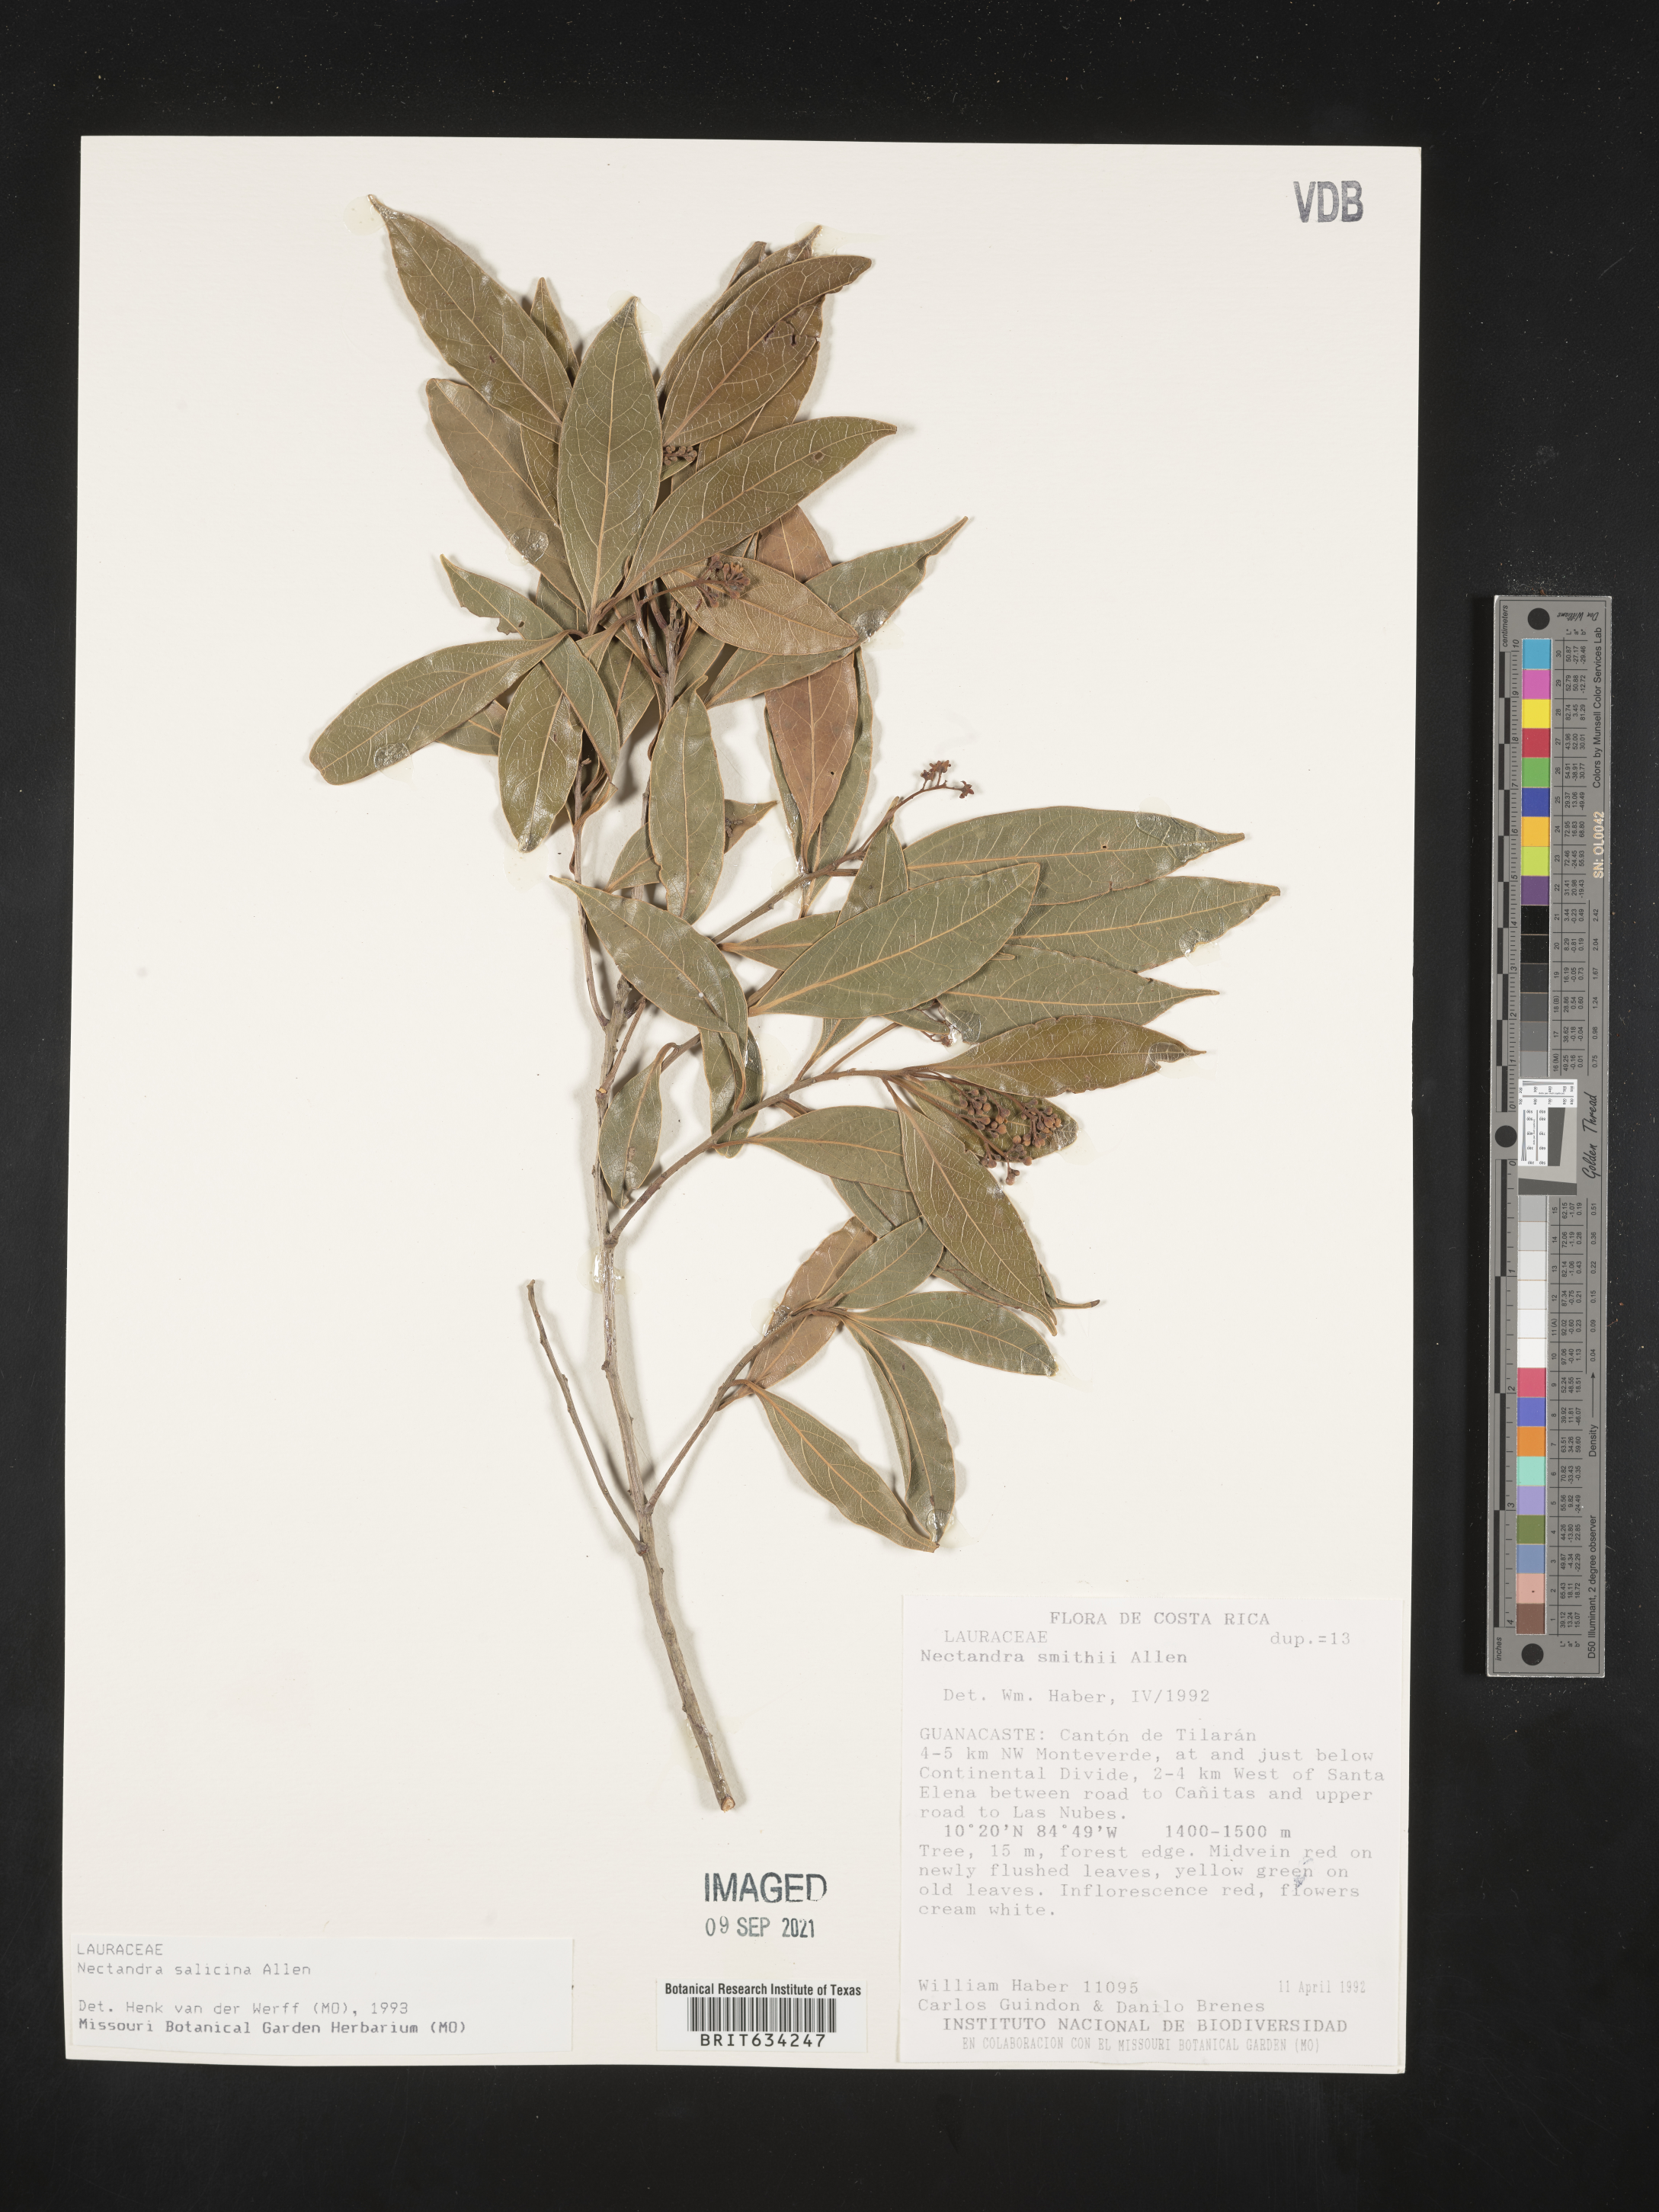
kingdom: Plantae
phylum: Tracheophyta
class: Magnoliopsida
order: Laurales
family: Lauraceae
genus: Nectandra
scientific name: Nectandra
